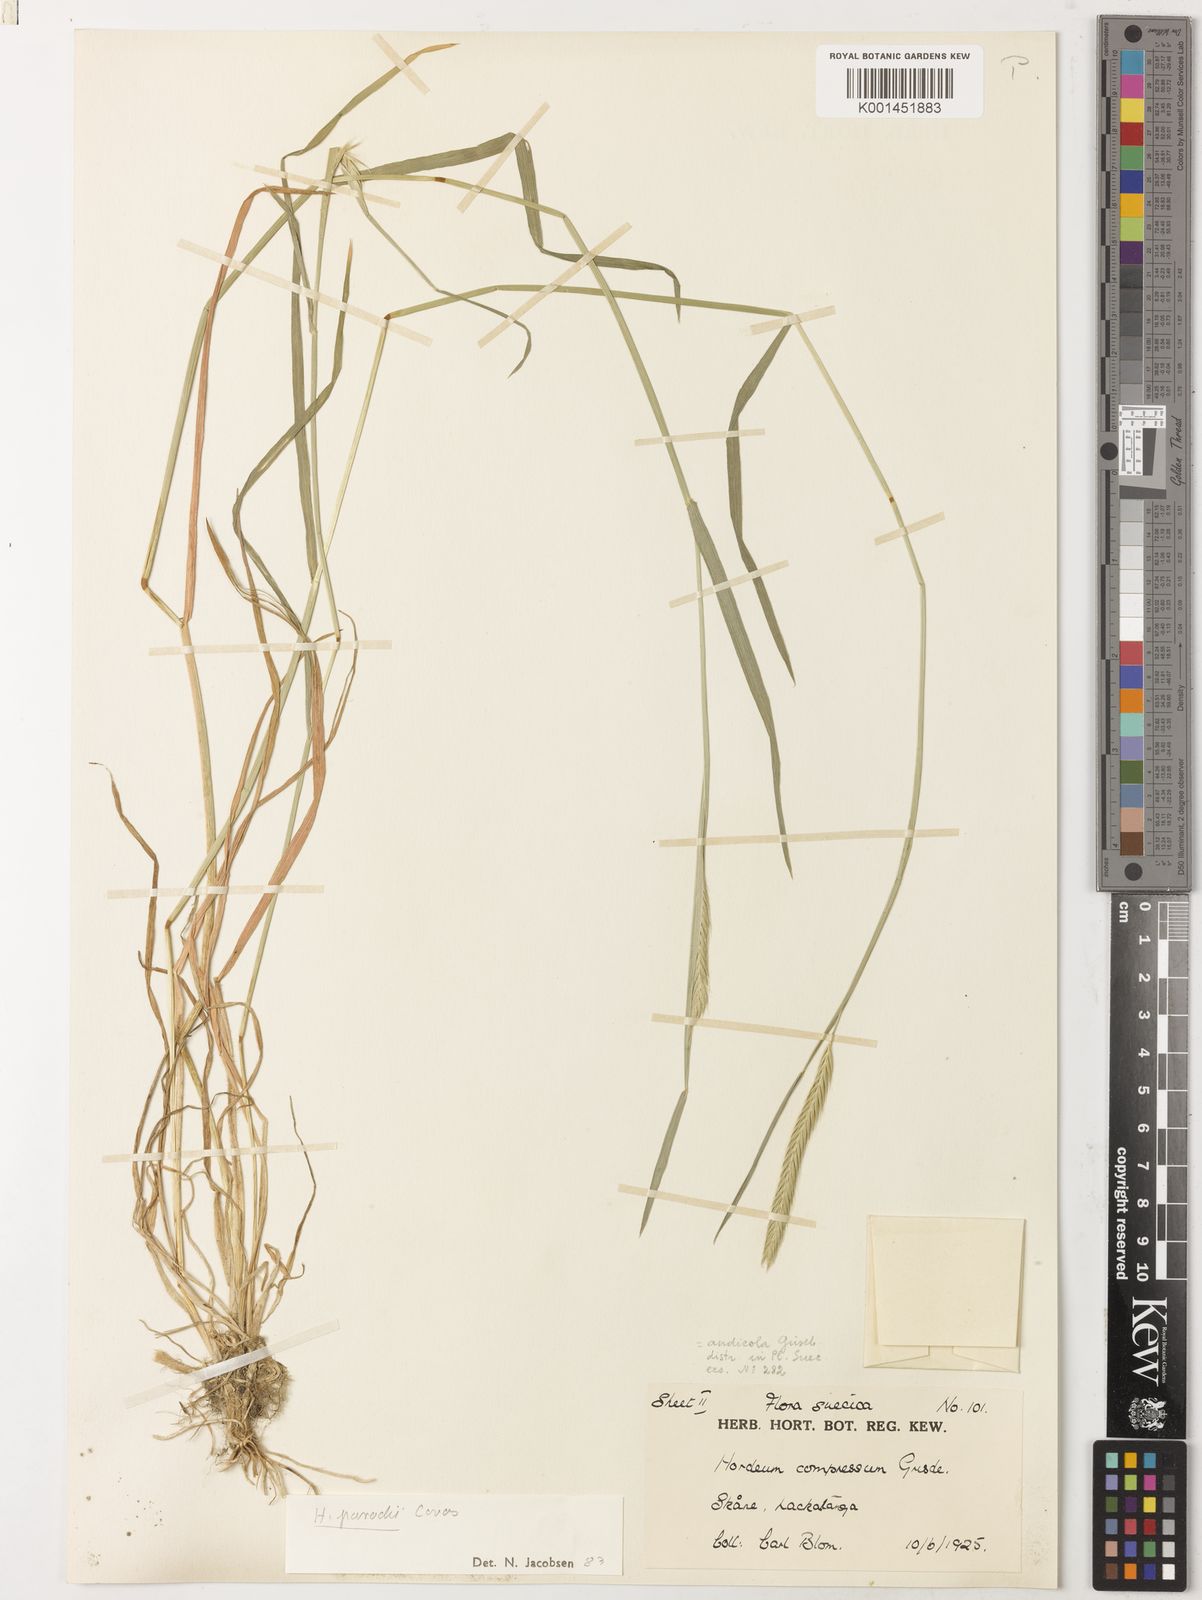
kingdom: Plantae
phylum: Tracheophyta
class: Liliopsida
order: Poales
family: Poaceae
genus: Hordeum
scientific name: Hordeum parodii
